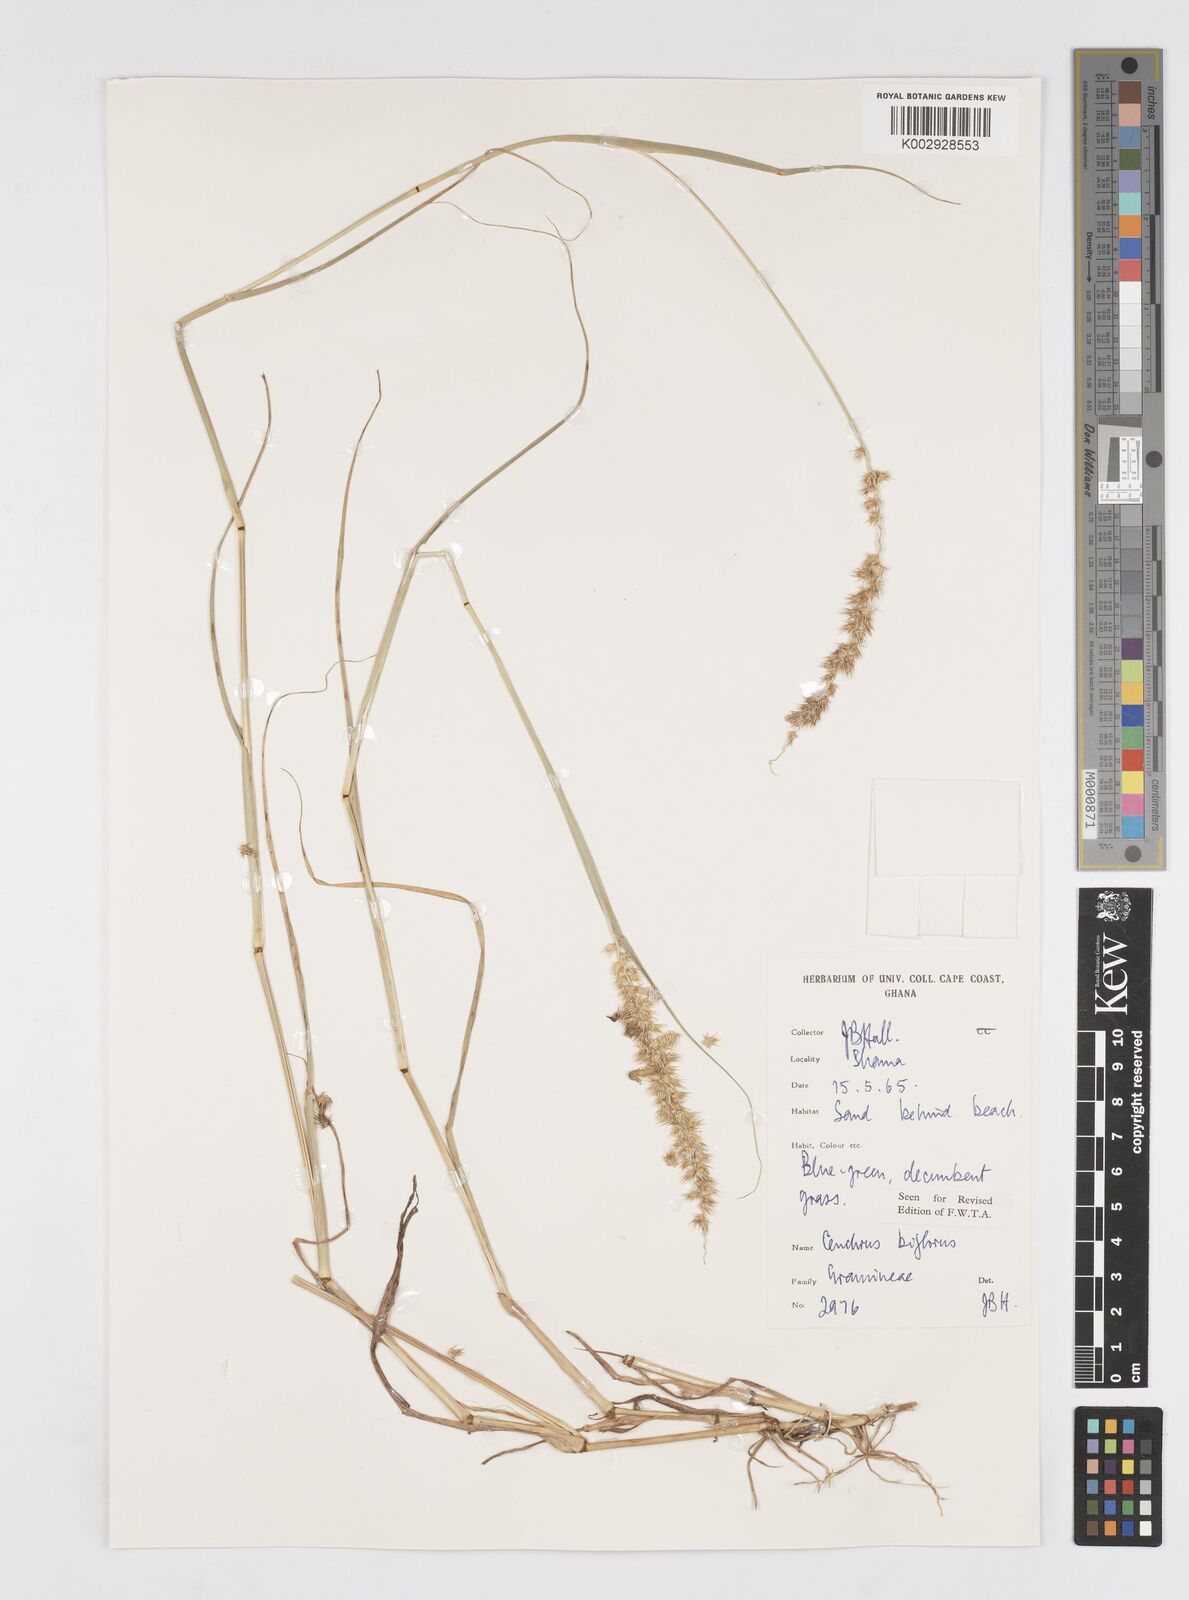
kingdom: Plantae
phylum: Tracheophyta
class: Liliopsida
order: Poales
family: Poaceae
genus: Cenchrus
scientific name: Cenchrus biflorus
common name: Indian sandbur
